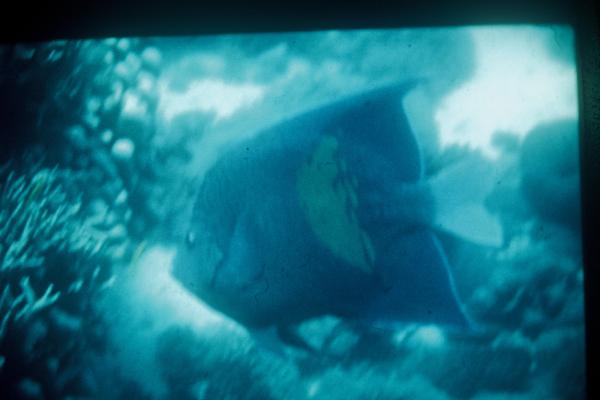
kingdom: Animalia
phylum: Chordata
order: Perciformes
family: Pomacanthidae
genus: Pomacanthus
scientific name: Pomacanthus maculosus
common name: Yellowbar angelfish
